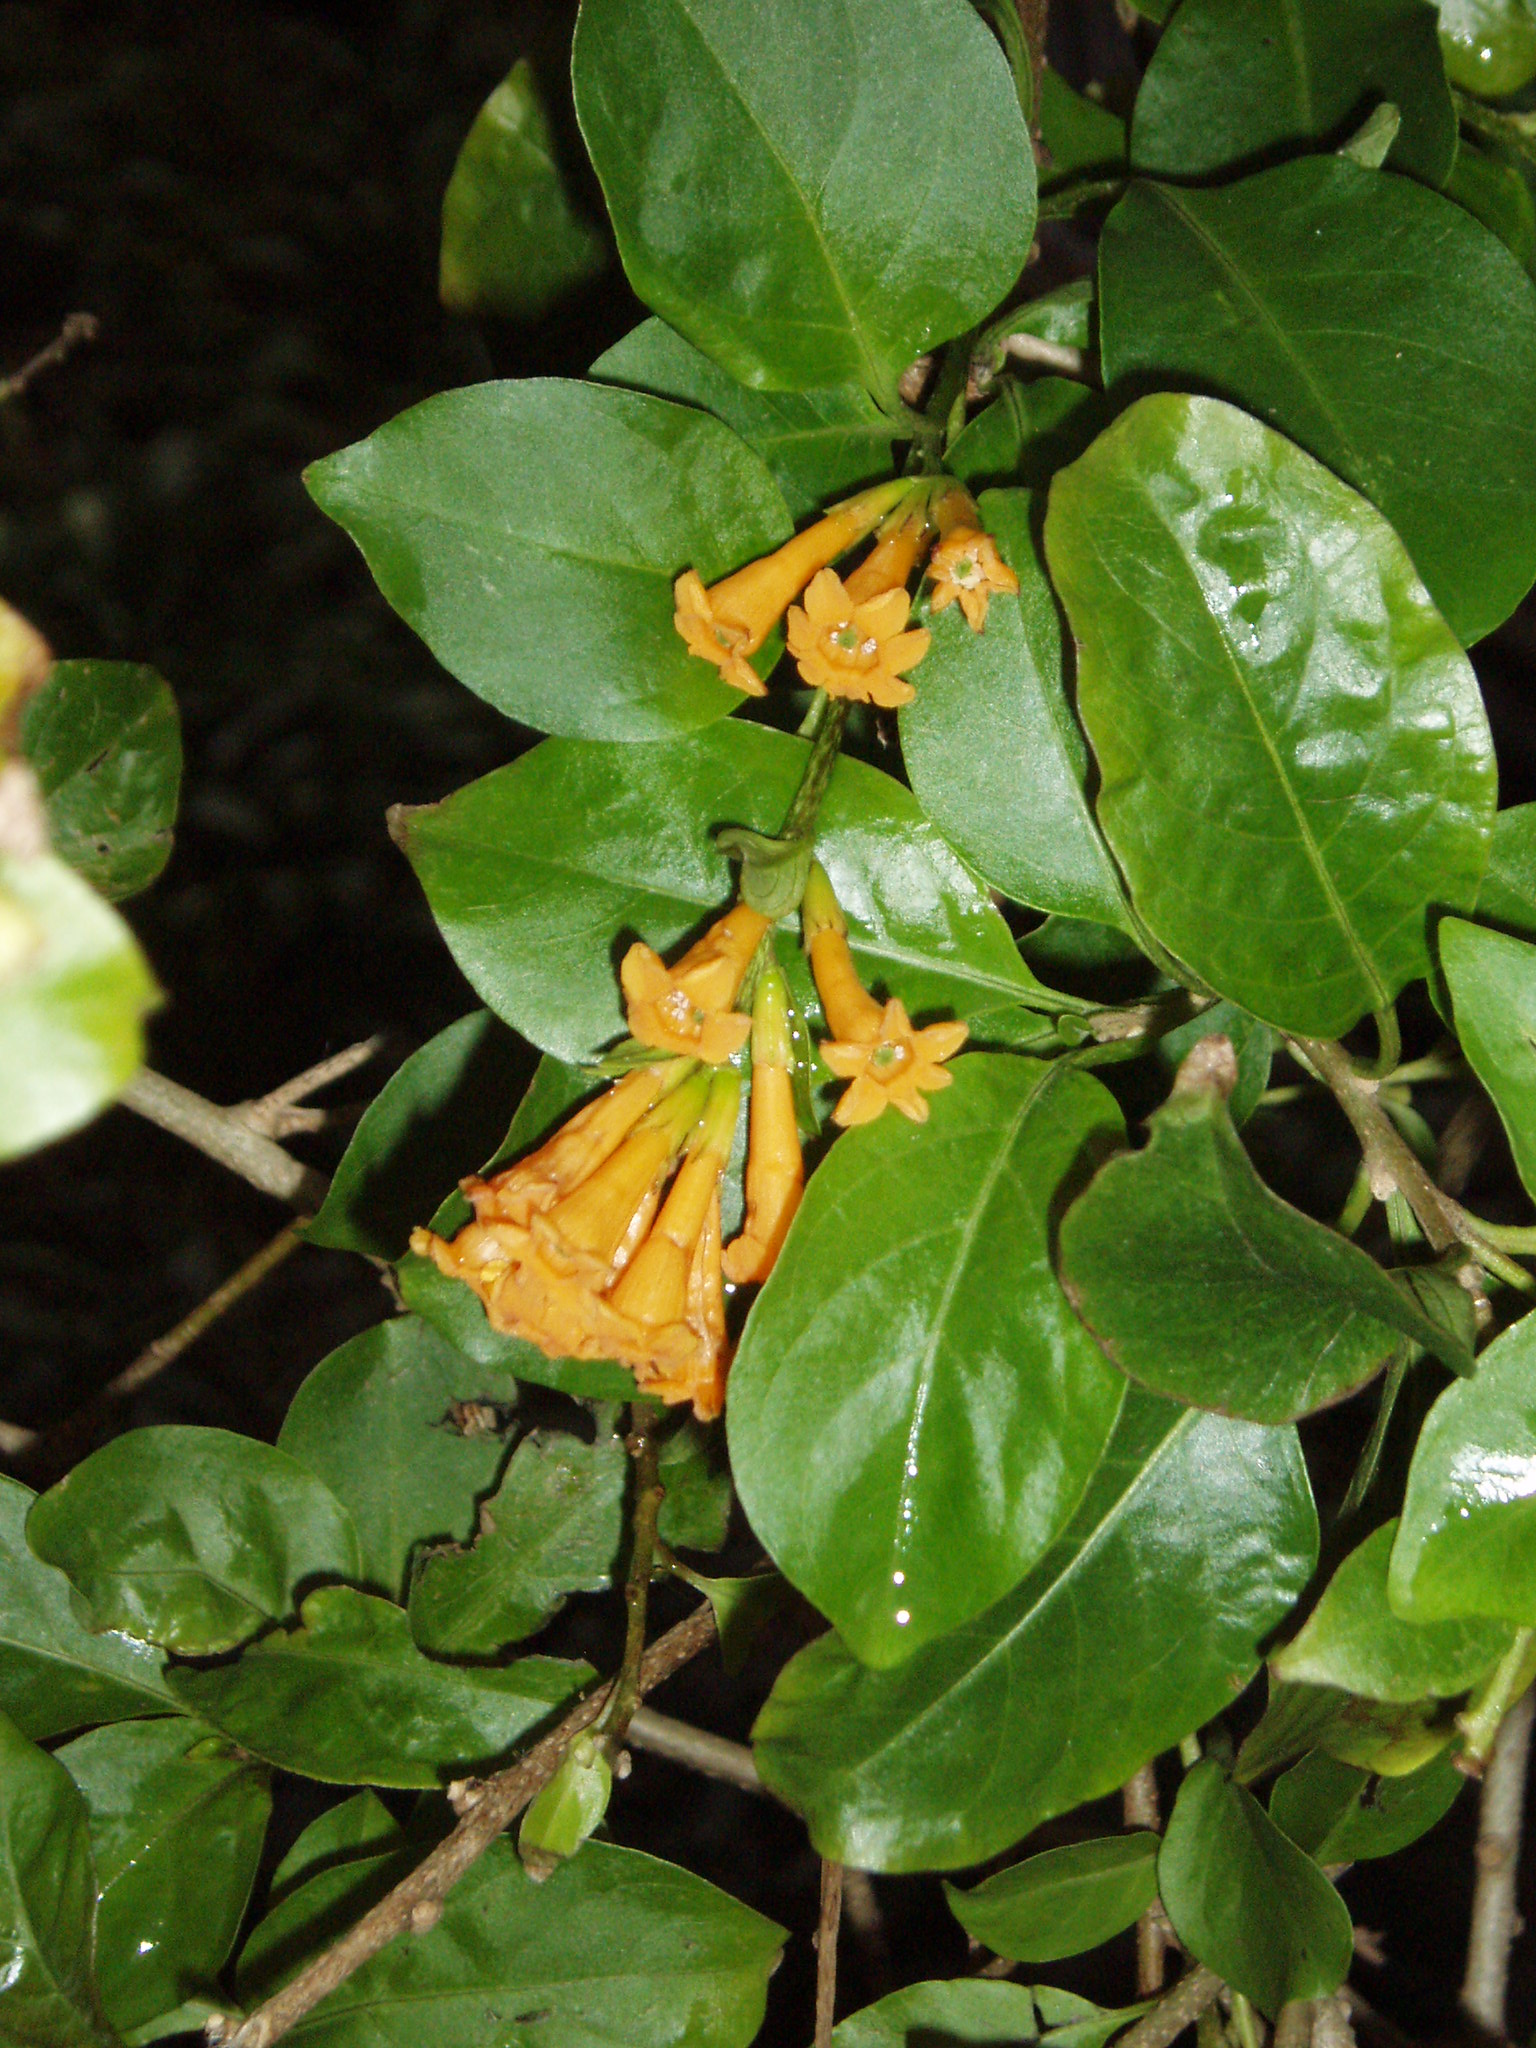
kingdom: Plantae
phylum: Tracheophyta
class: Magnoliopsida
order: Solanales
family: Solanaceae
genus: Cestrum
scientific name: Cestrum aurantiacum
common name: Orange cestrum
